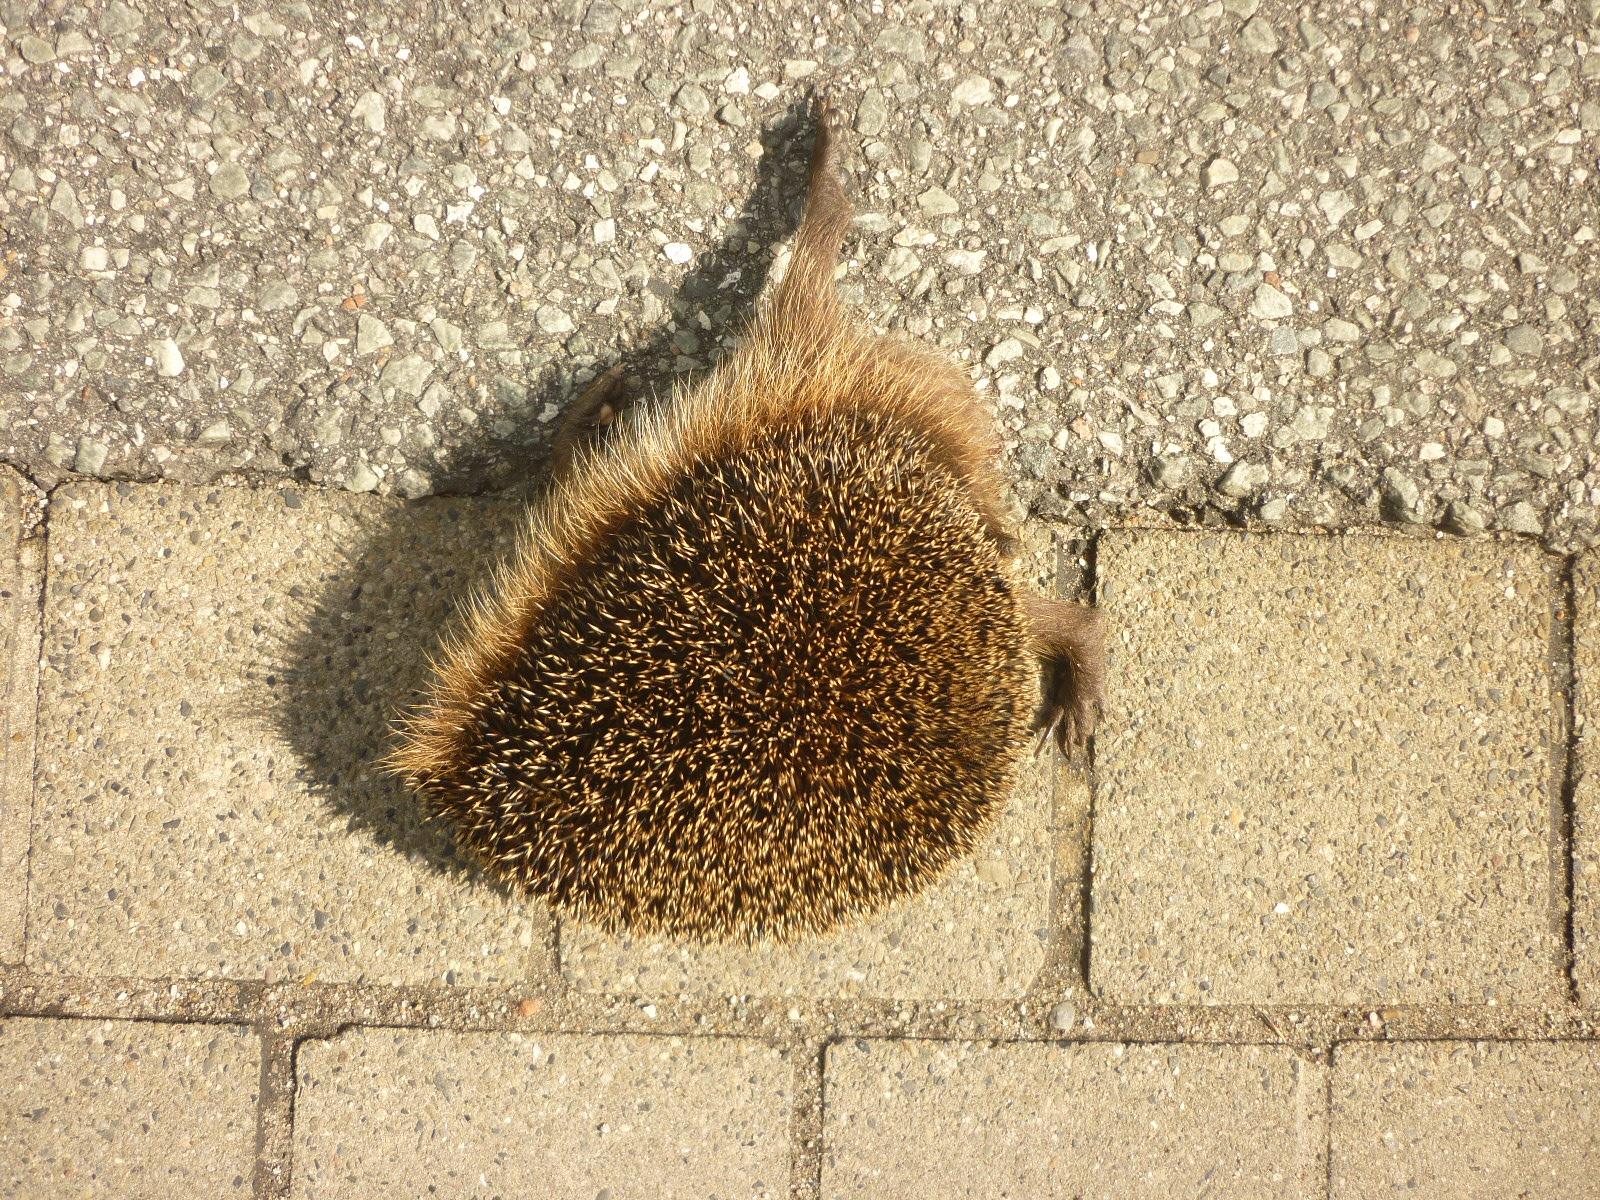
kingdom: Animalia
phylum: Chordata
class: Mammalia
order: Erinaceomorpha
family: Erinaceidae
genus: Erinaceus
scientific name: Erinaceus
